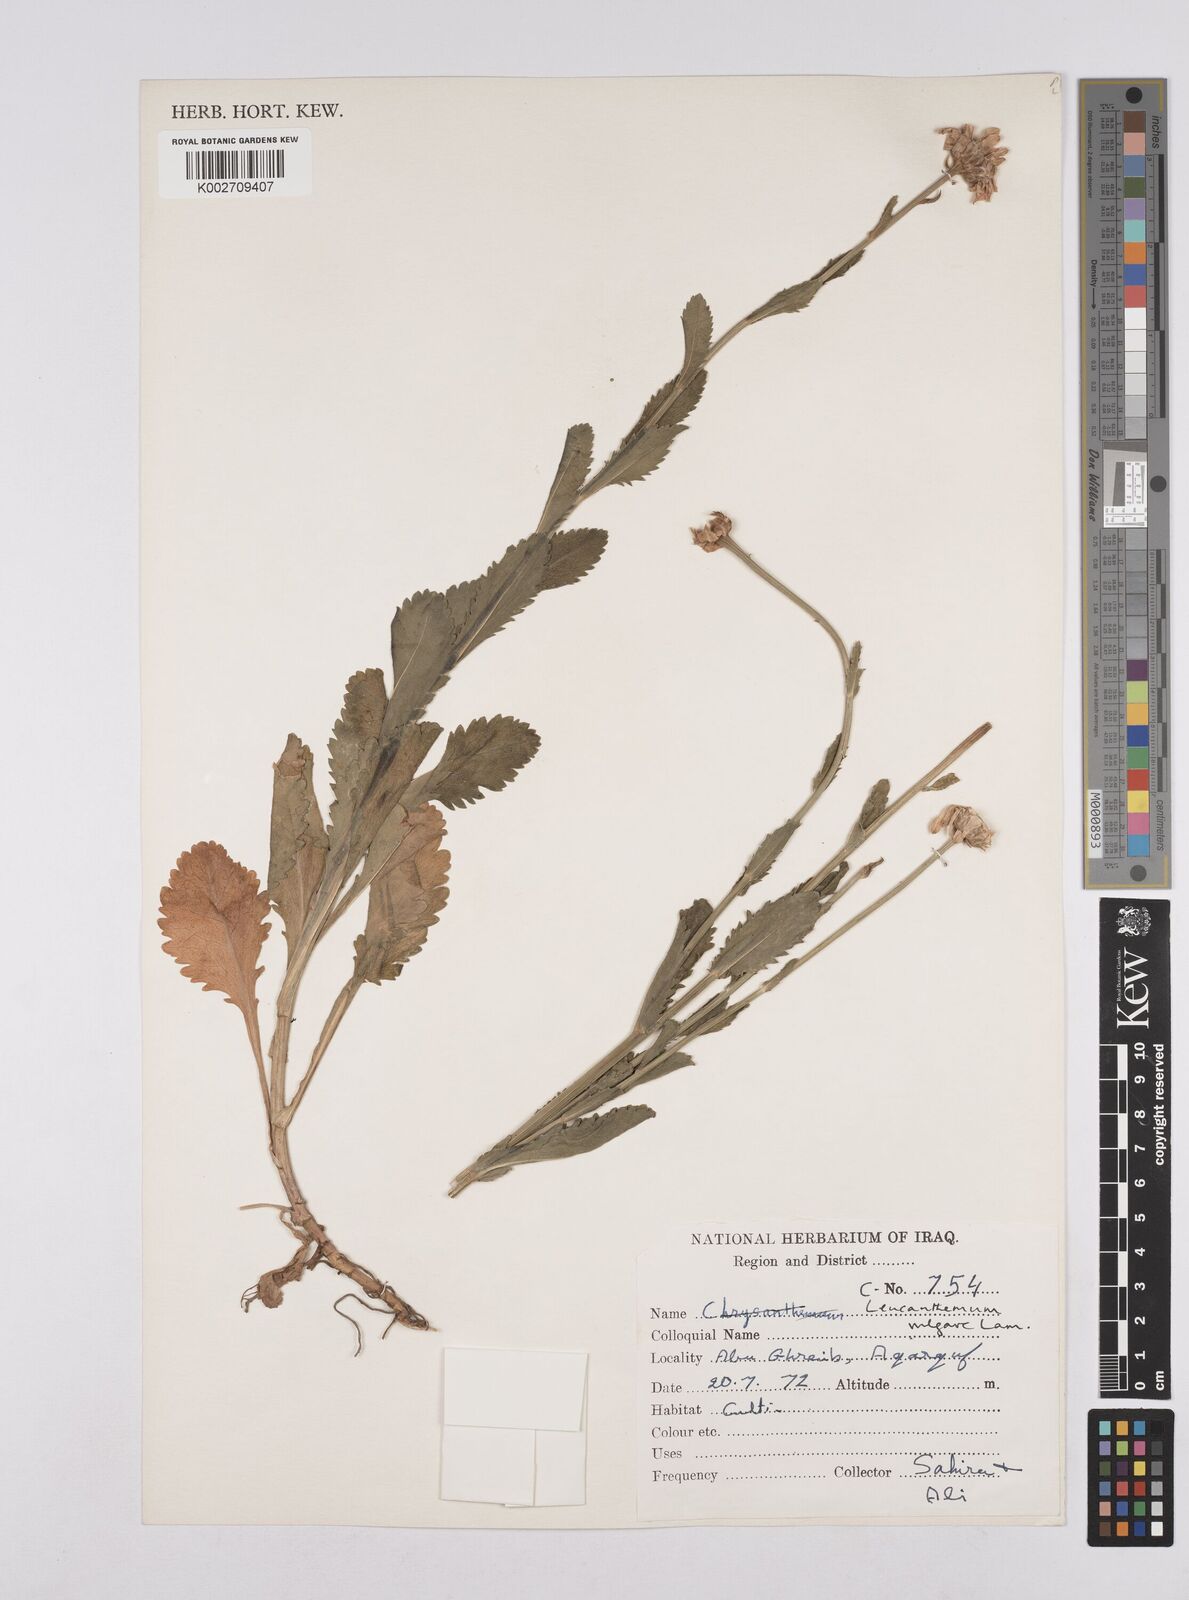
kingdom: Plantae
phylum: Tracheophyta
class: Magnoliopsida
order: Asterales
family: Asteraceae
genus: Leucanthemum
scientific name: Leucanthemum
